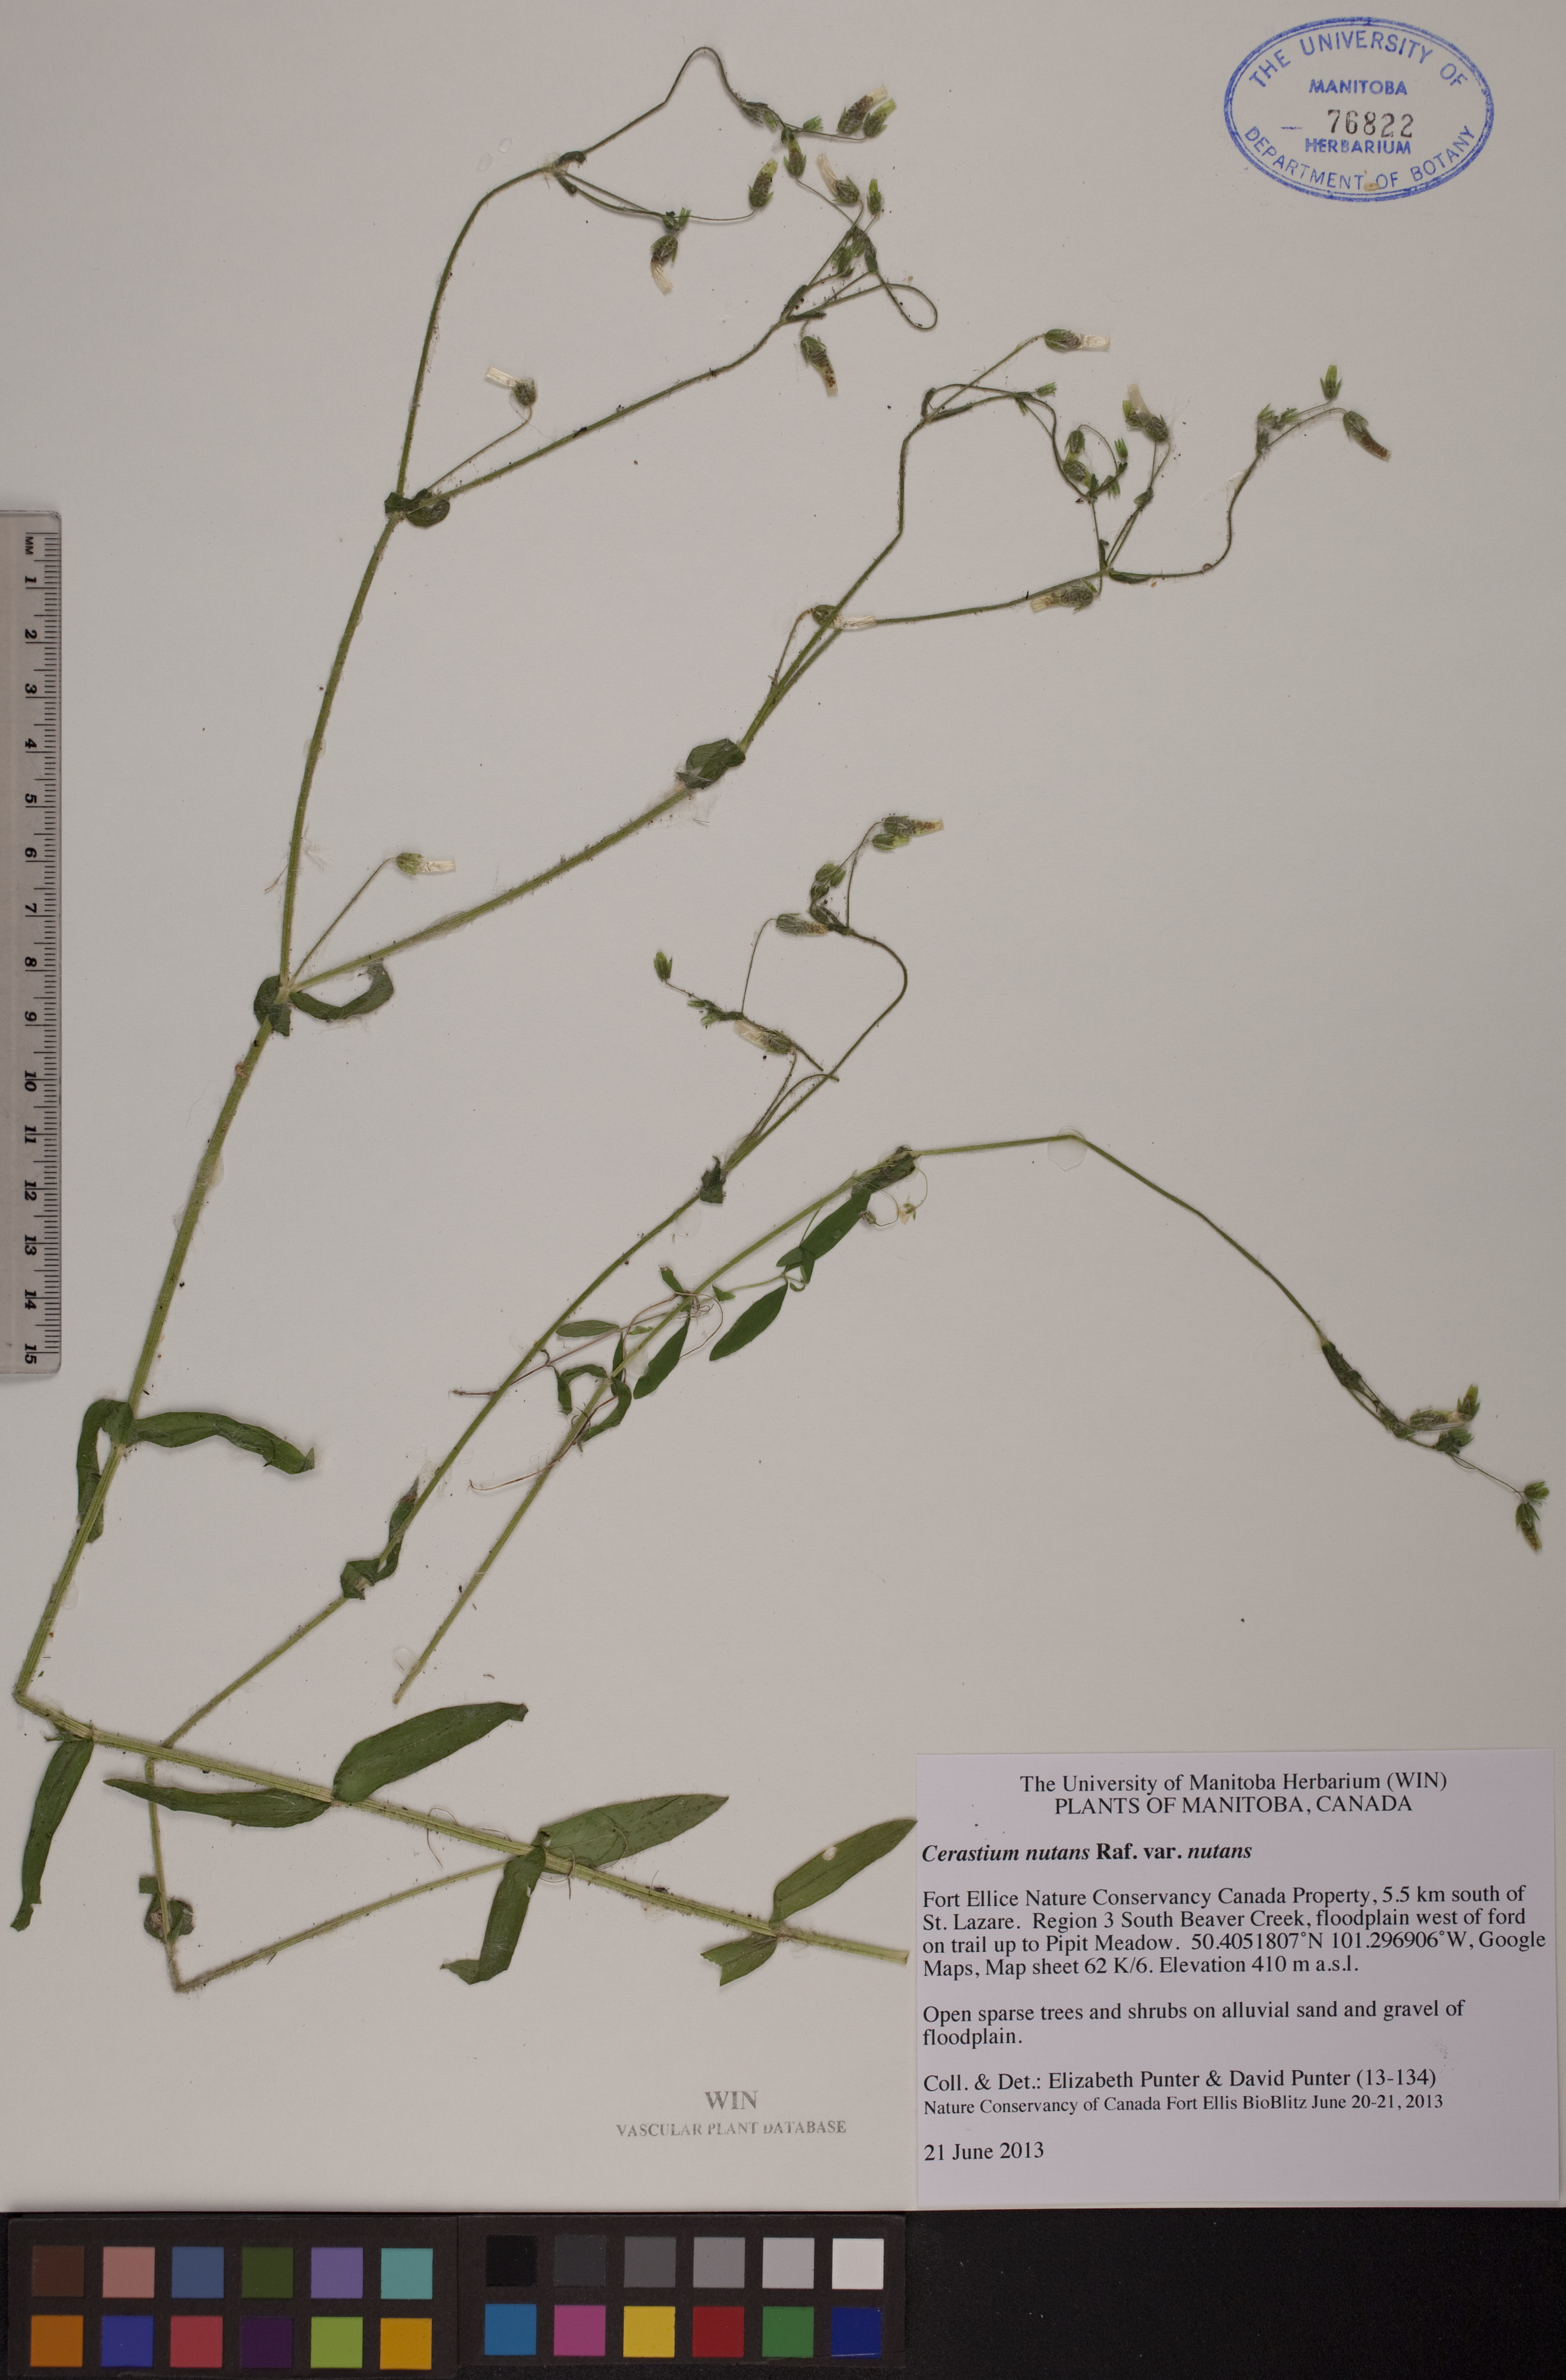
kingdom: Plantae
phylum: Tracheophyta
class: Magnoliopsida
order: Caryophyllales
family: Caryophyllaceae
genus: Cerastium
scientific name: Cerastium nutans
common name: Long-stalked chickweed
